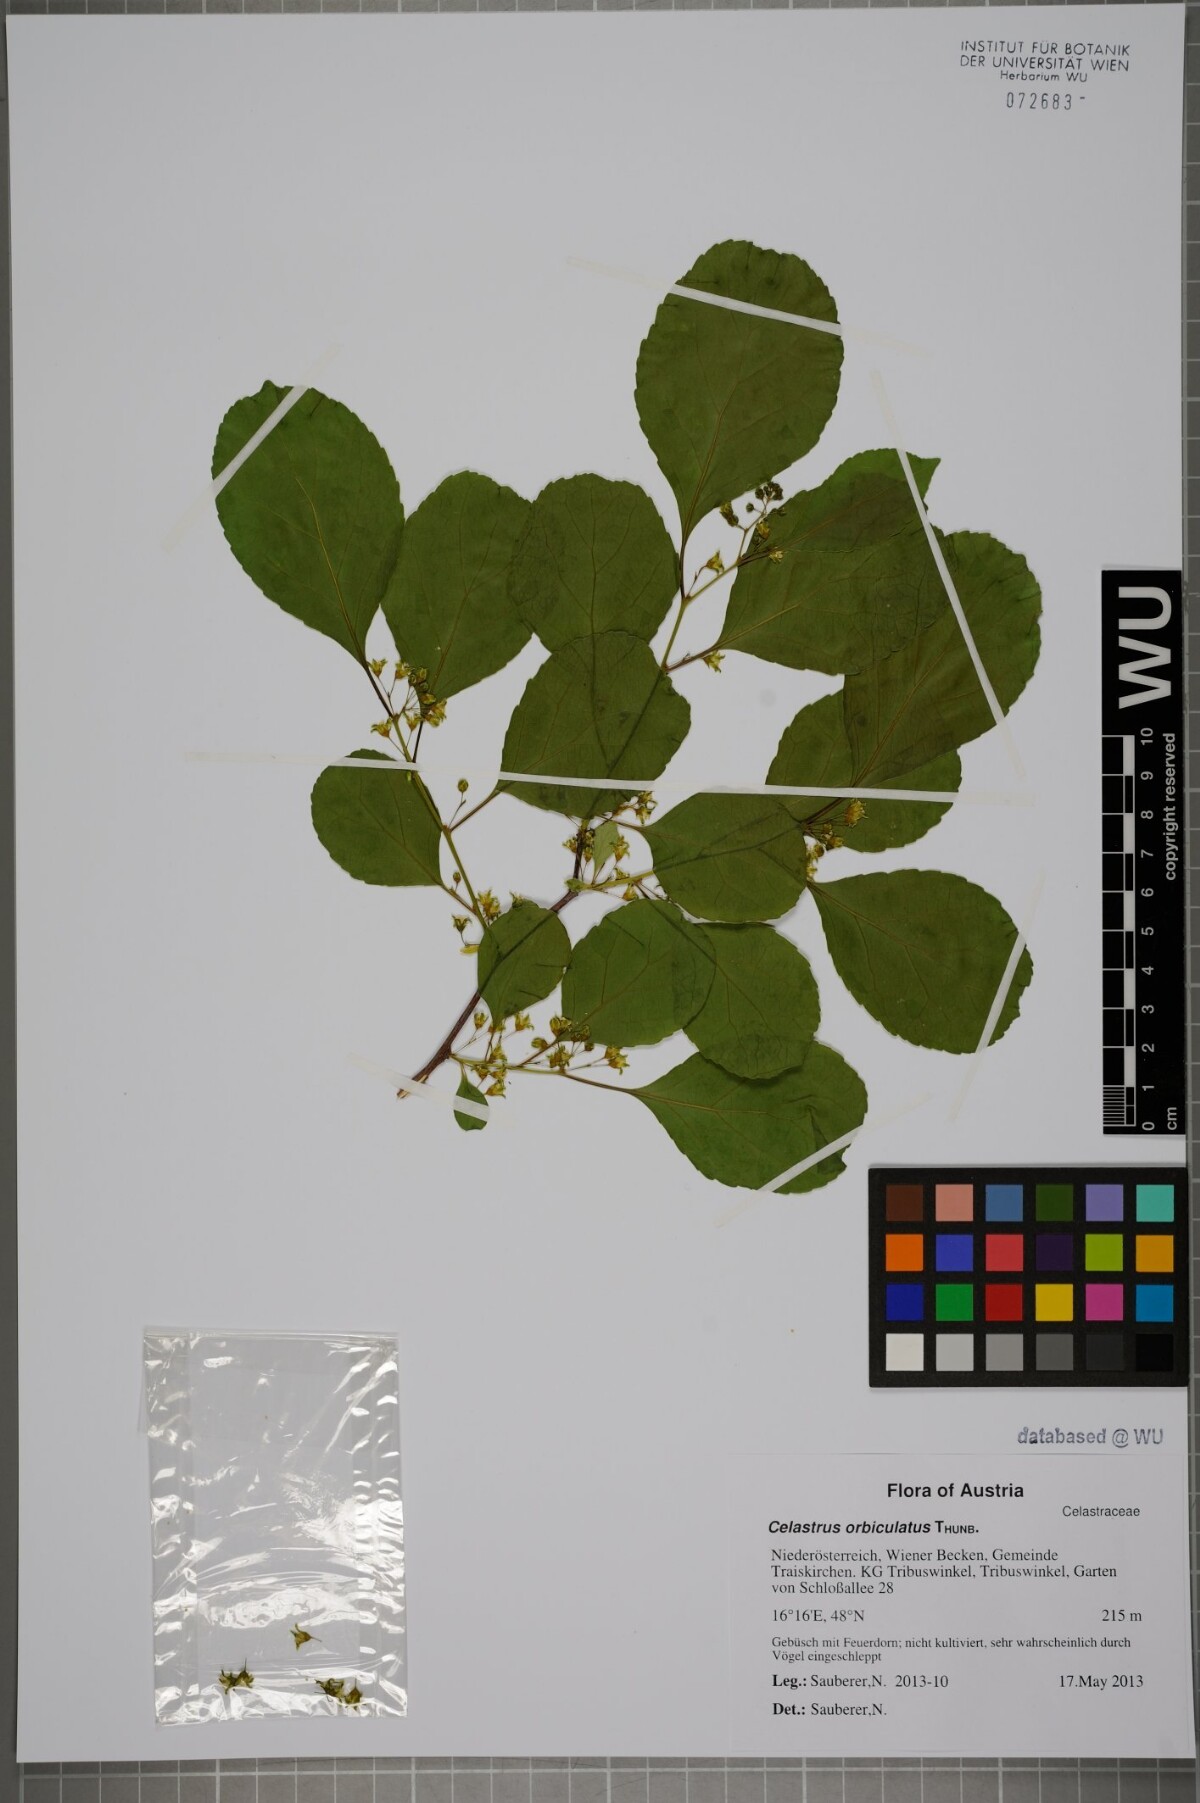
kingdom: Plantae
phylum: Tracheophyta
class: Magnoliopsida
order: Celastrales
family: Celastraceae
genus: Celastrus
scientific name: Celastrus orbiculatus
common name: Oriental bittersweet
